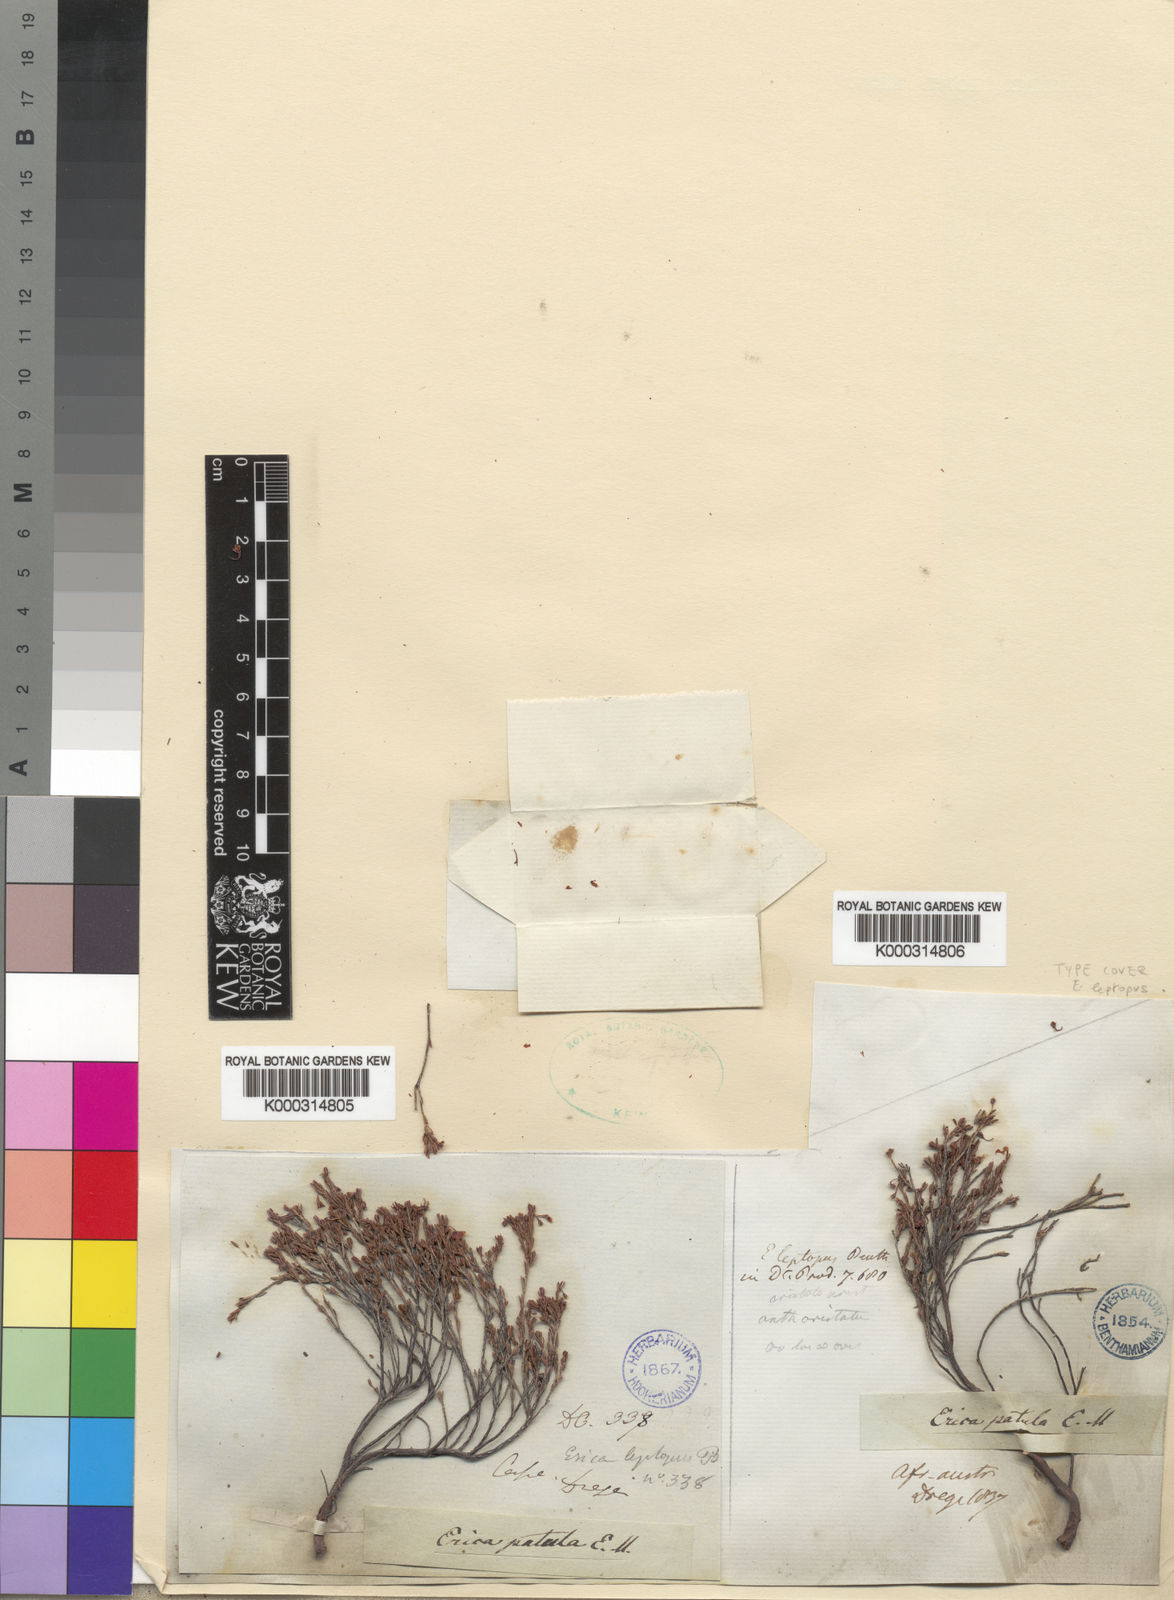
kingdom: Plantae
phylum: Tracheophyta
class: Magnoliopsida
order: Ericales
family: Ericaceae
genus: Erica
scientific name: Erica leptopus
